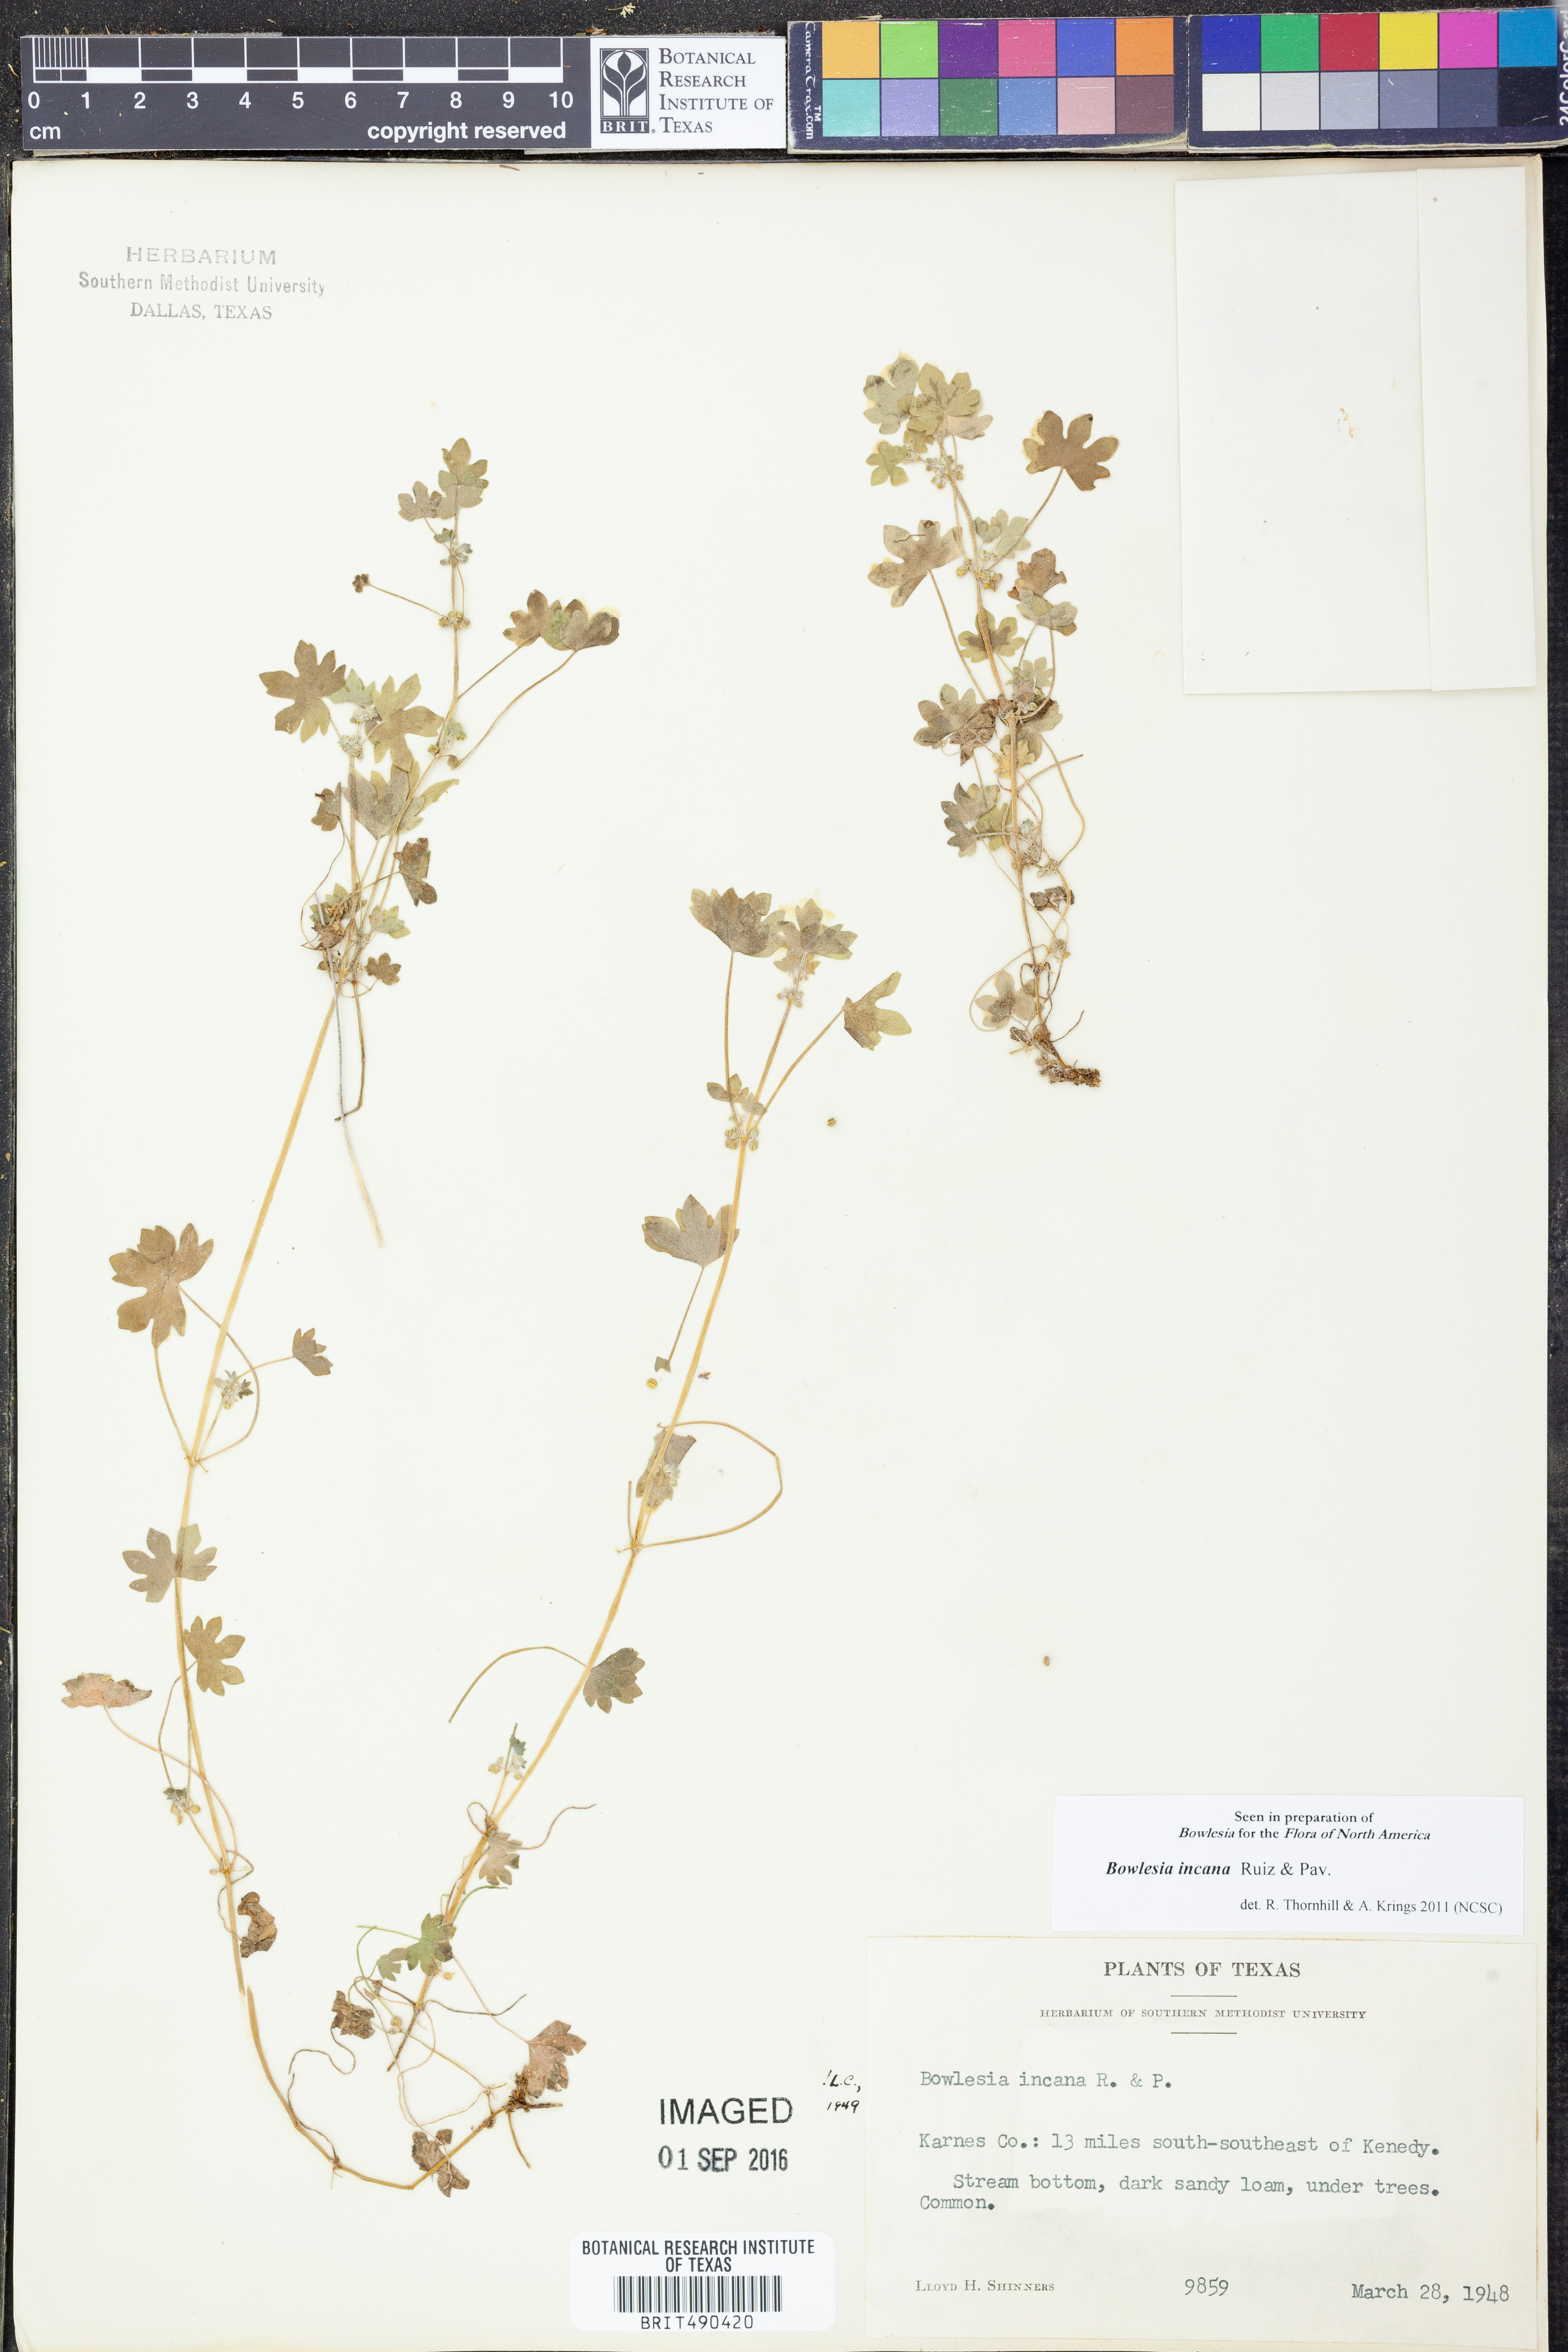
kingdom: Plantae
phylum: Tracheophyta
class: Magnoliopsida
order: Apiales
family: Apiaceae
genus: Bowlesia
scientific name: Bowlesia incana
